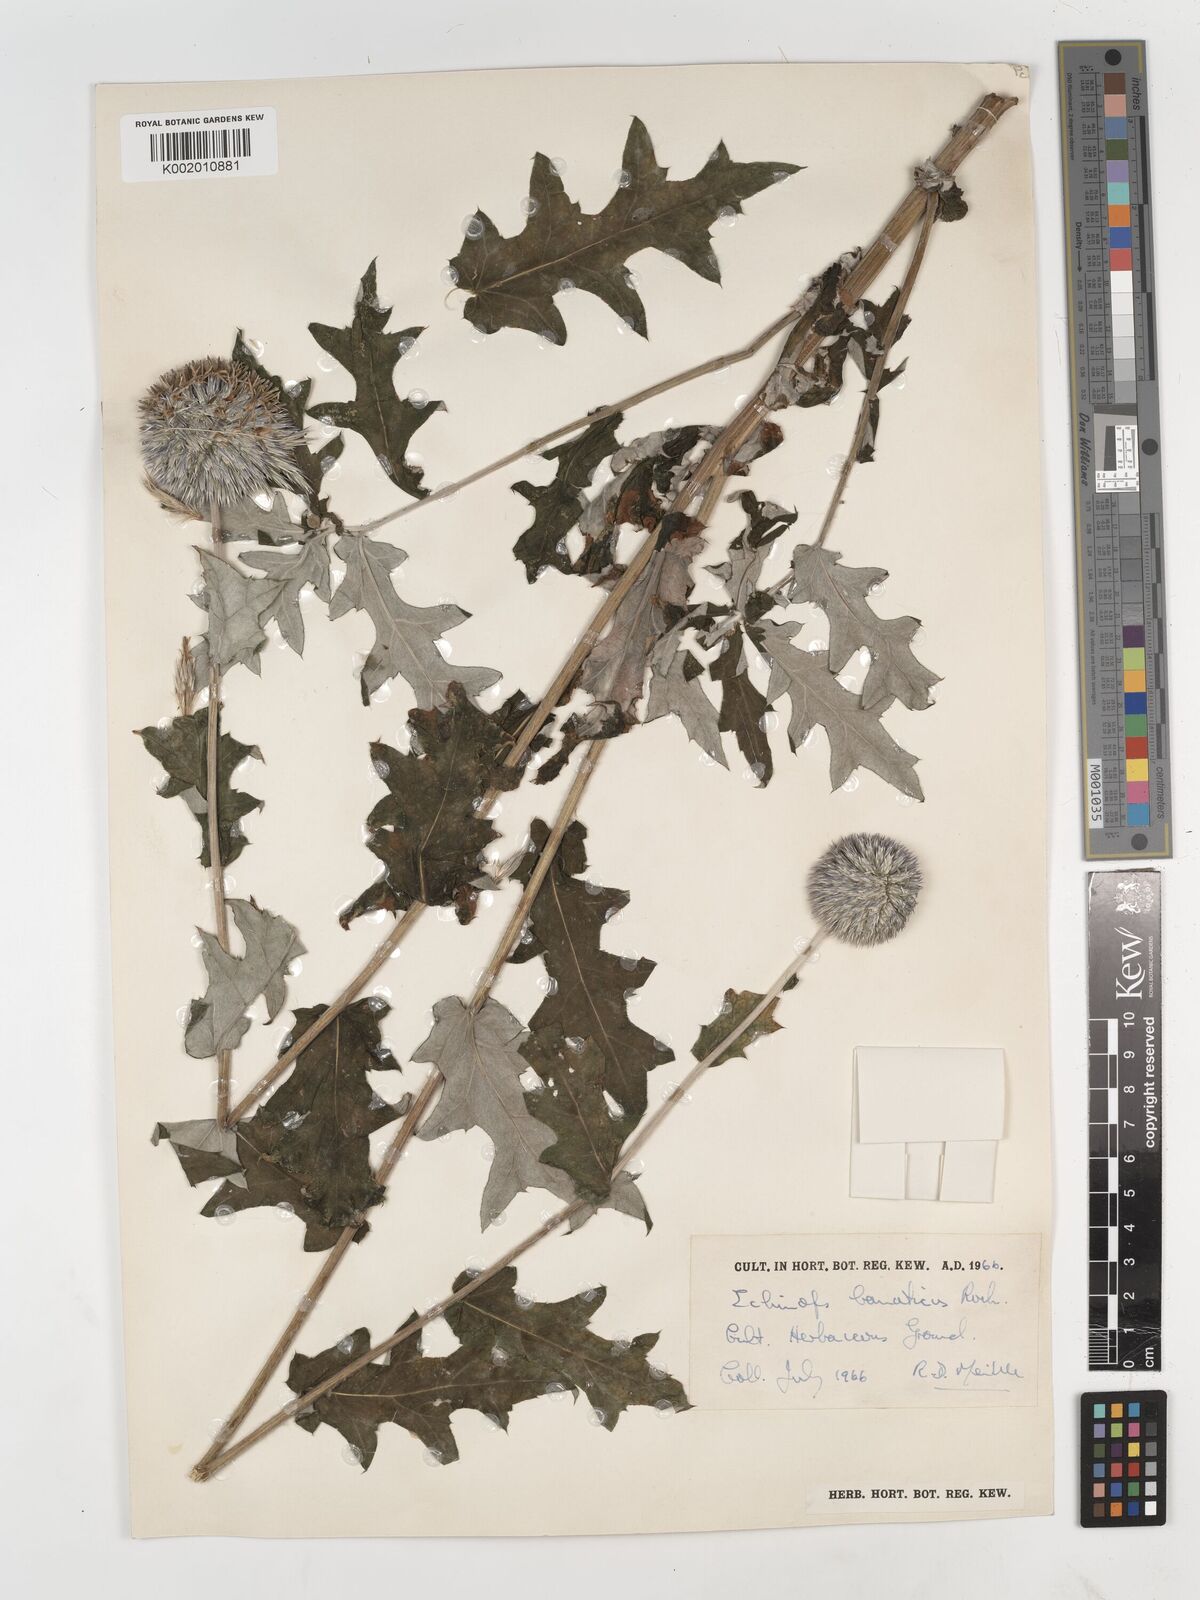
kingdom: Plantae
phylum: Tracheophyta
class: Magnoliopsida
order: Asterales
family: Asteraceae
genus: Echinops
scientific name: Echinops bannaticus
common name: Blue globe-thistle
